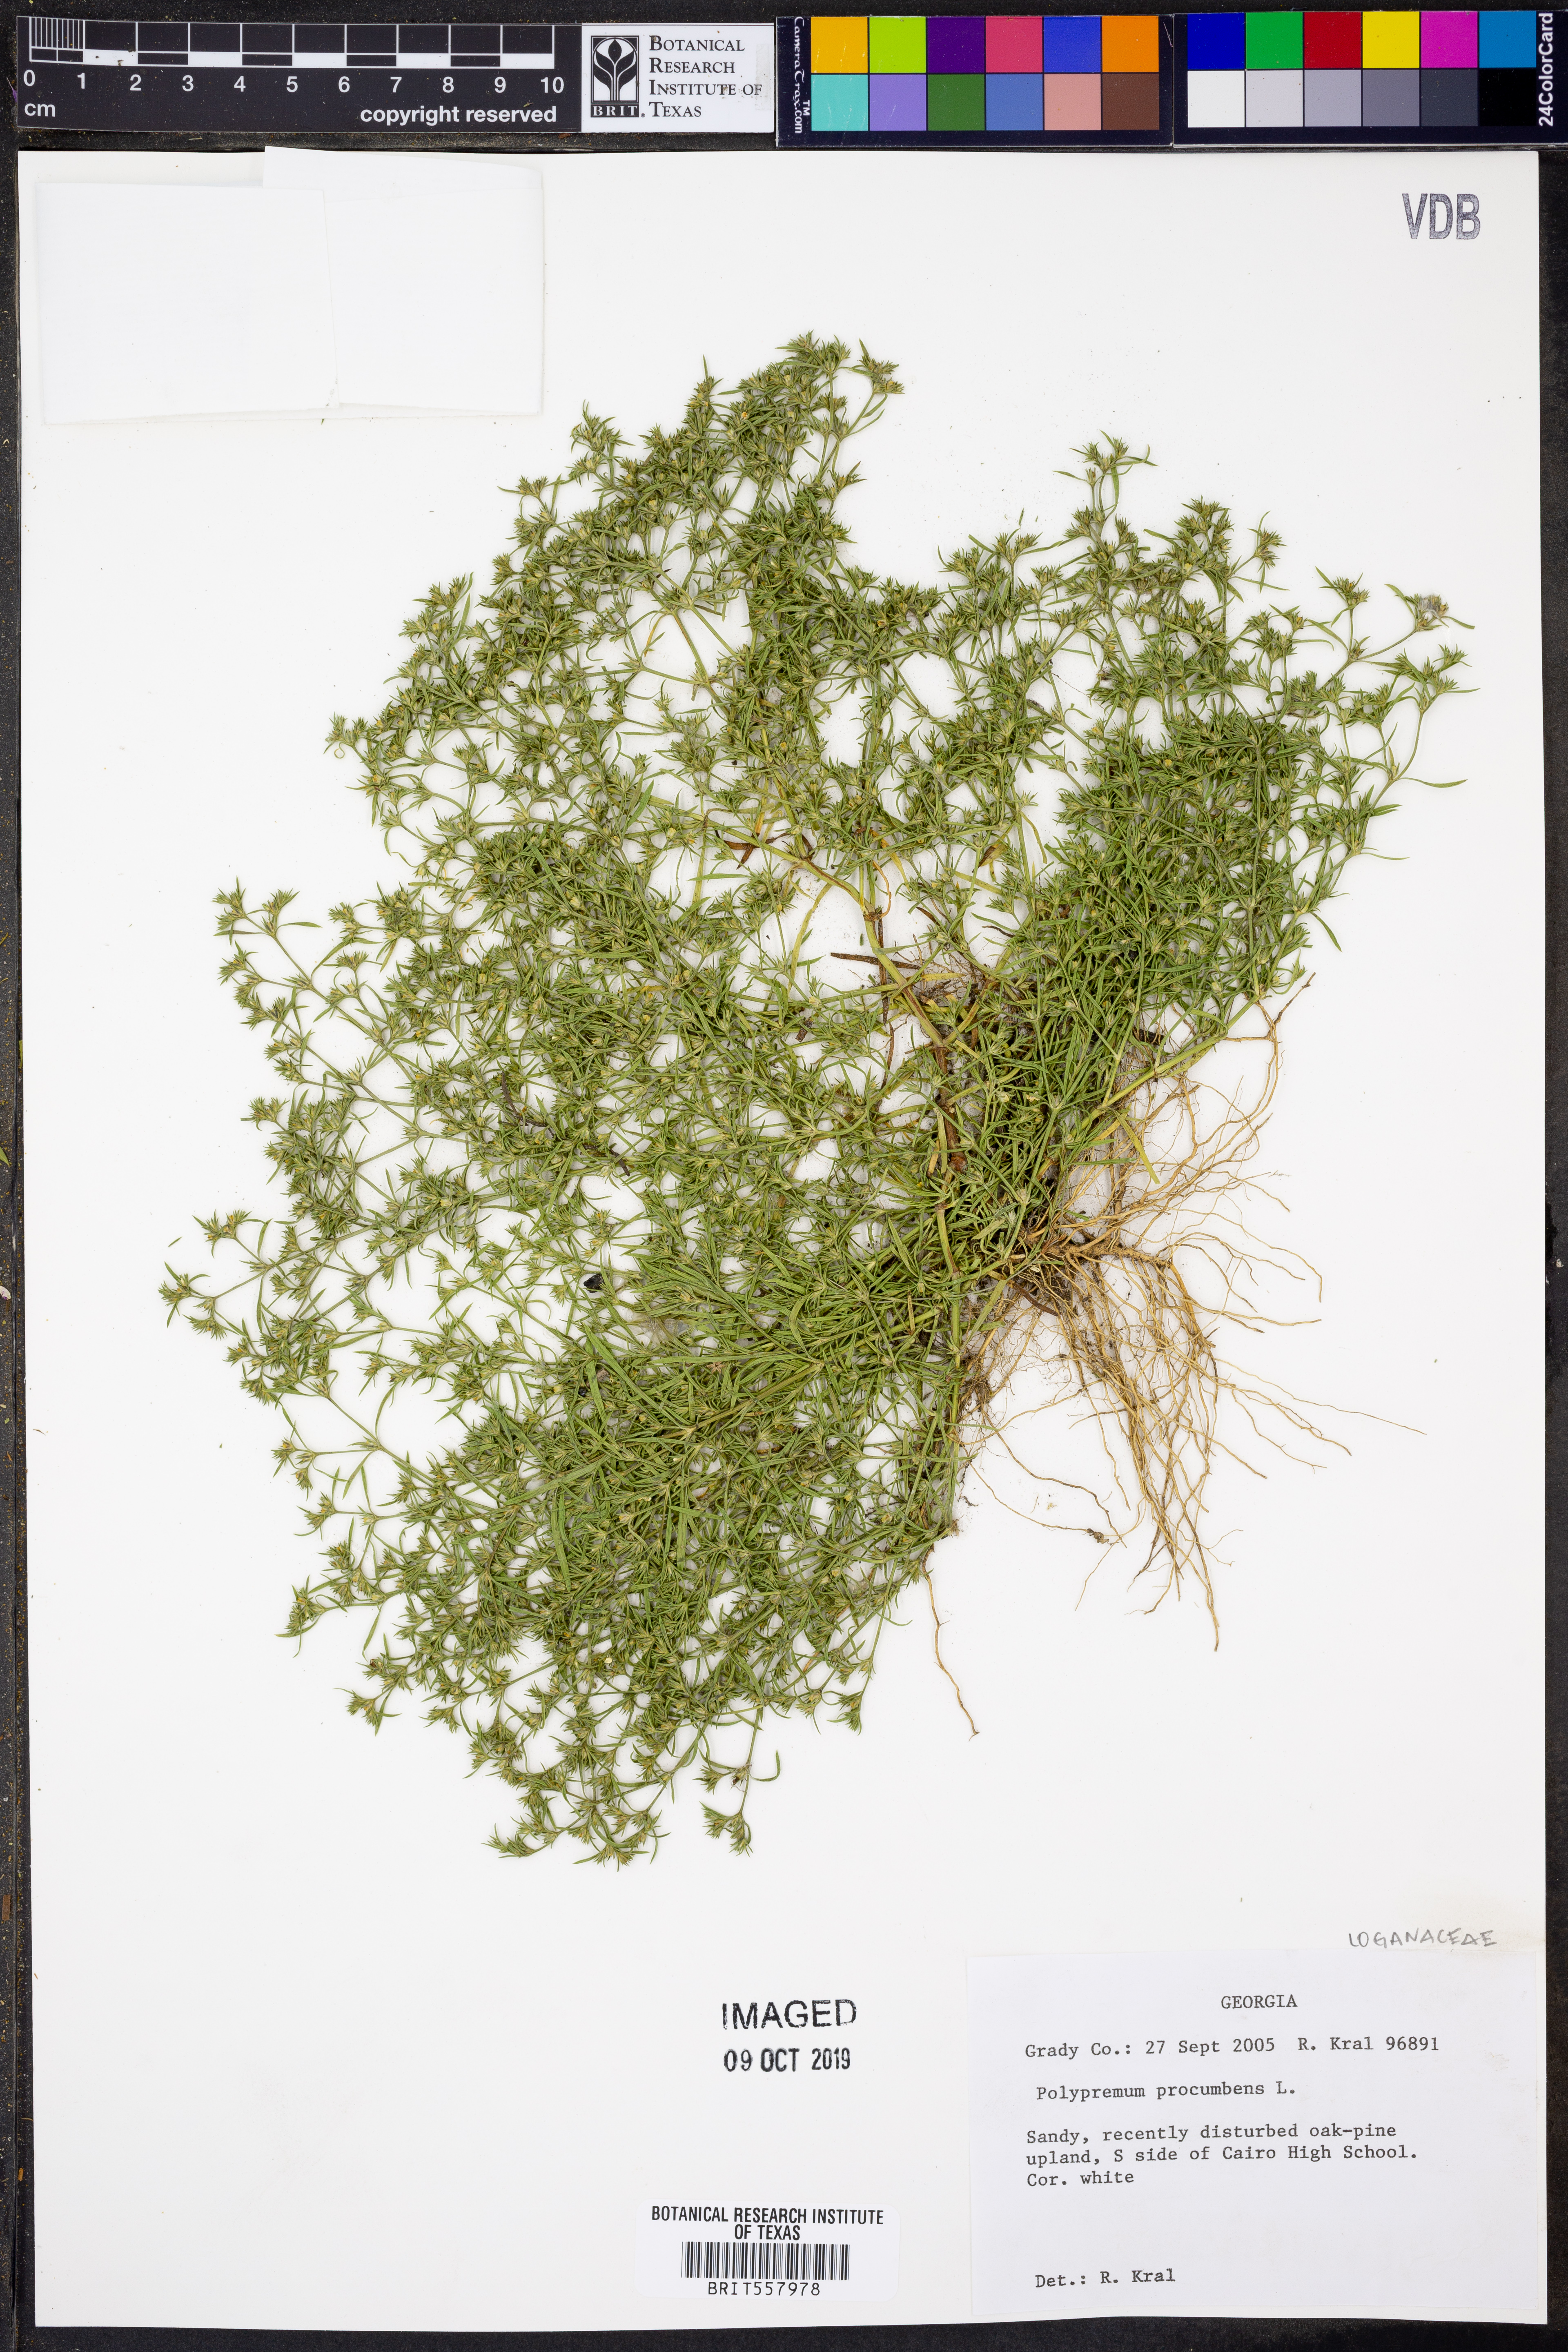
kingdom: Plantae
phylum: Tracheophyta
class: Magnoliopsida
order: Lamiales
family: Tetrachondraceae
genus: Polypremum
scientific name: Polypremum procumbens
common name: Juniper-leaf
